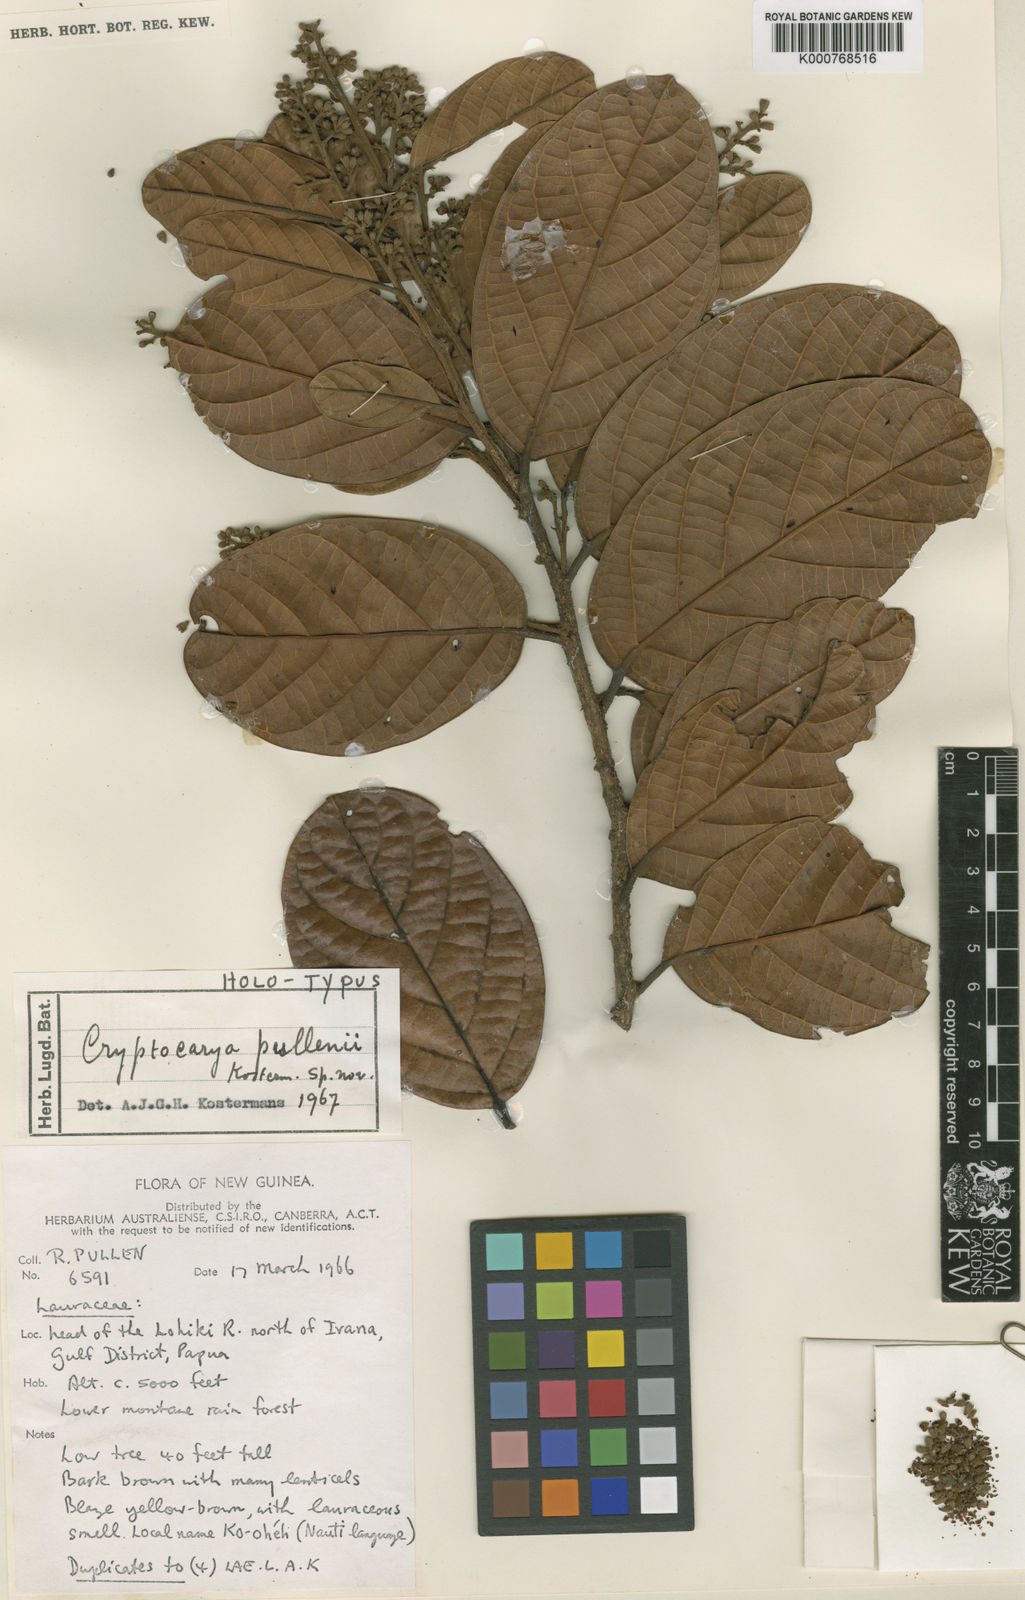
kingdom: Plantae
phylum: Tracheophyta
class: Magnoliopsida
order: Laurales
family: Lauraceae
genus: Cryptocarya
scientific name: Cryptocarya pullenii
